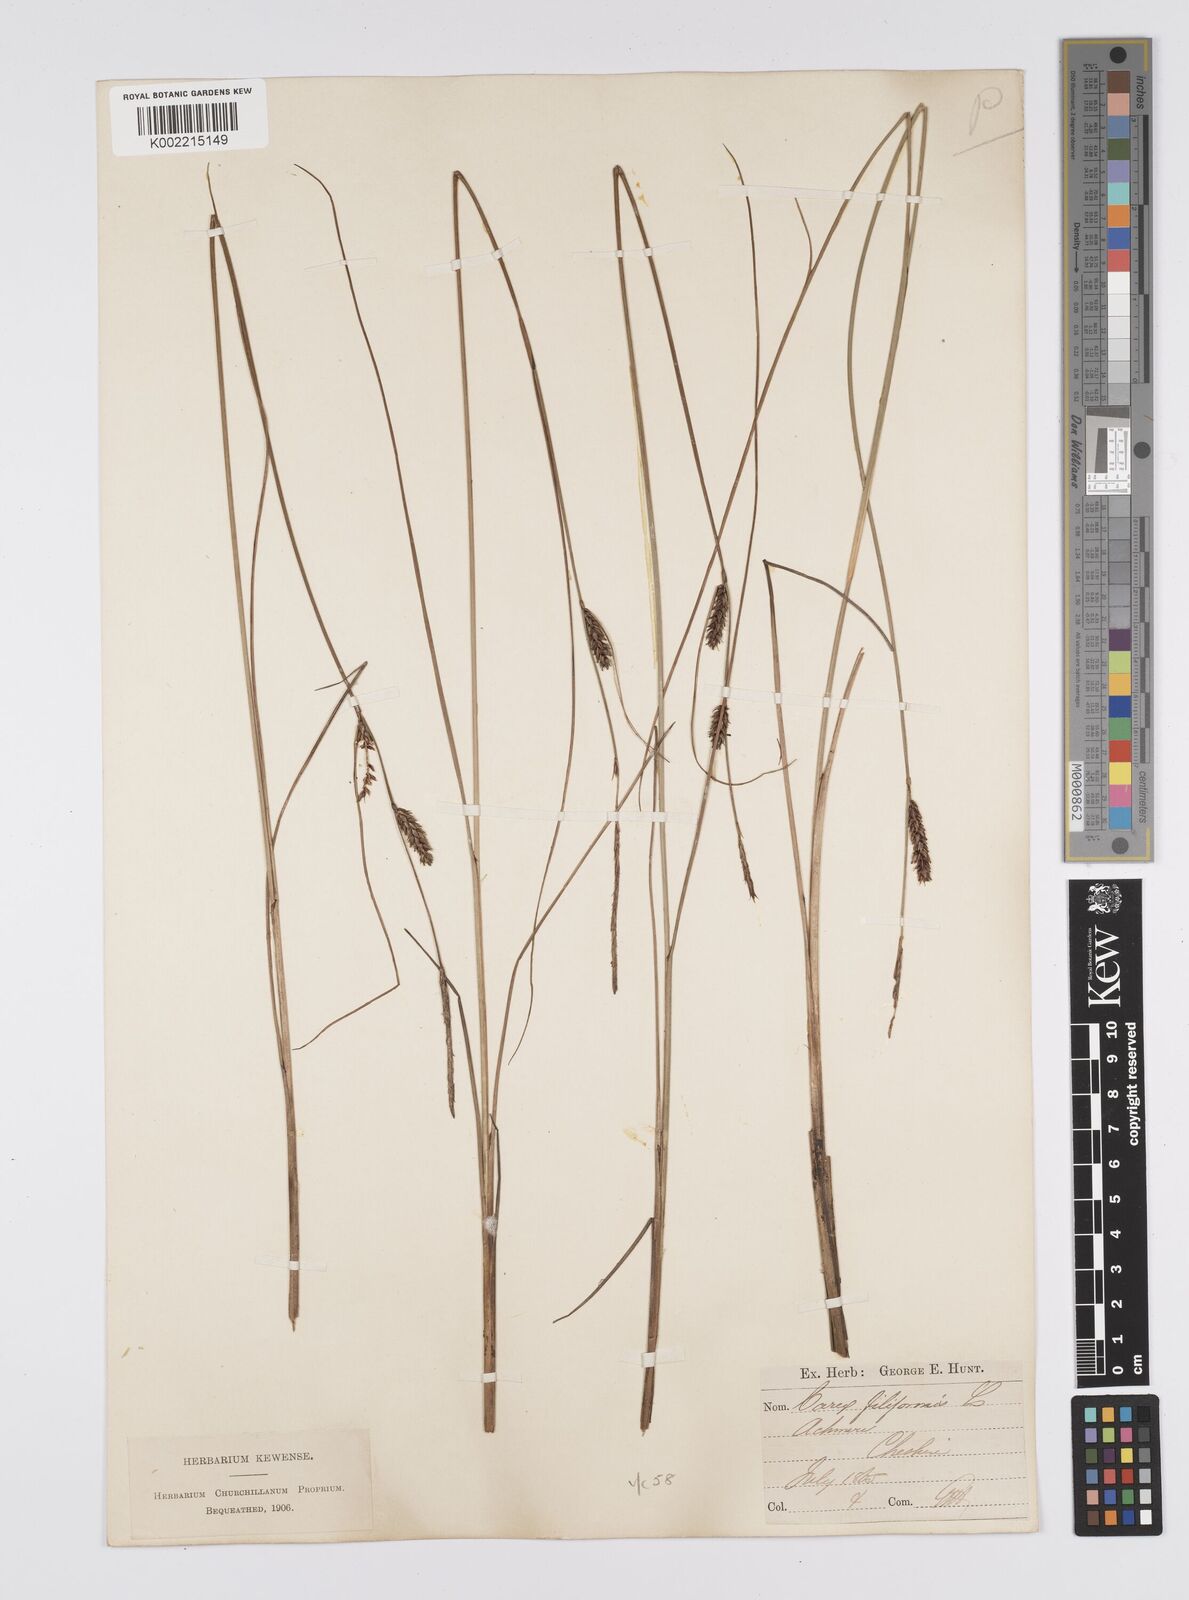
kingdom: Plantae
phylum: Tracheophyta
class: Liliopsida
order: Poales
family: Cyperaceae
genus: Carex
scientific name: Carex lasiocarpa
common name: Slender sedge
